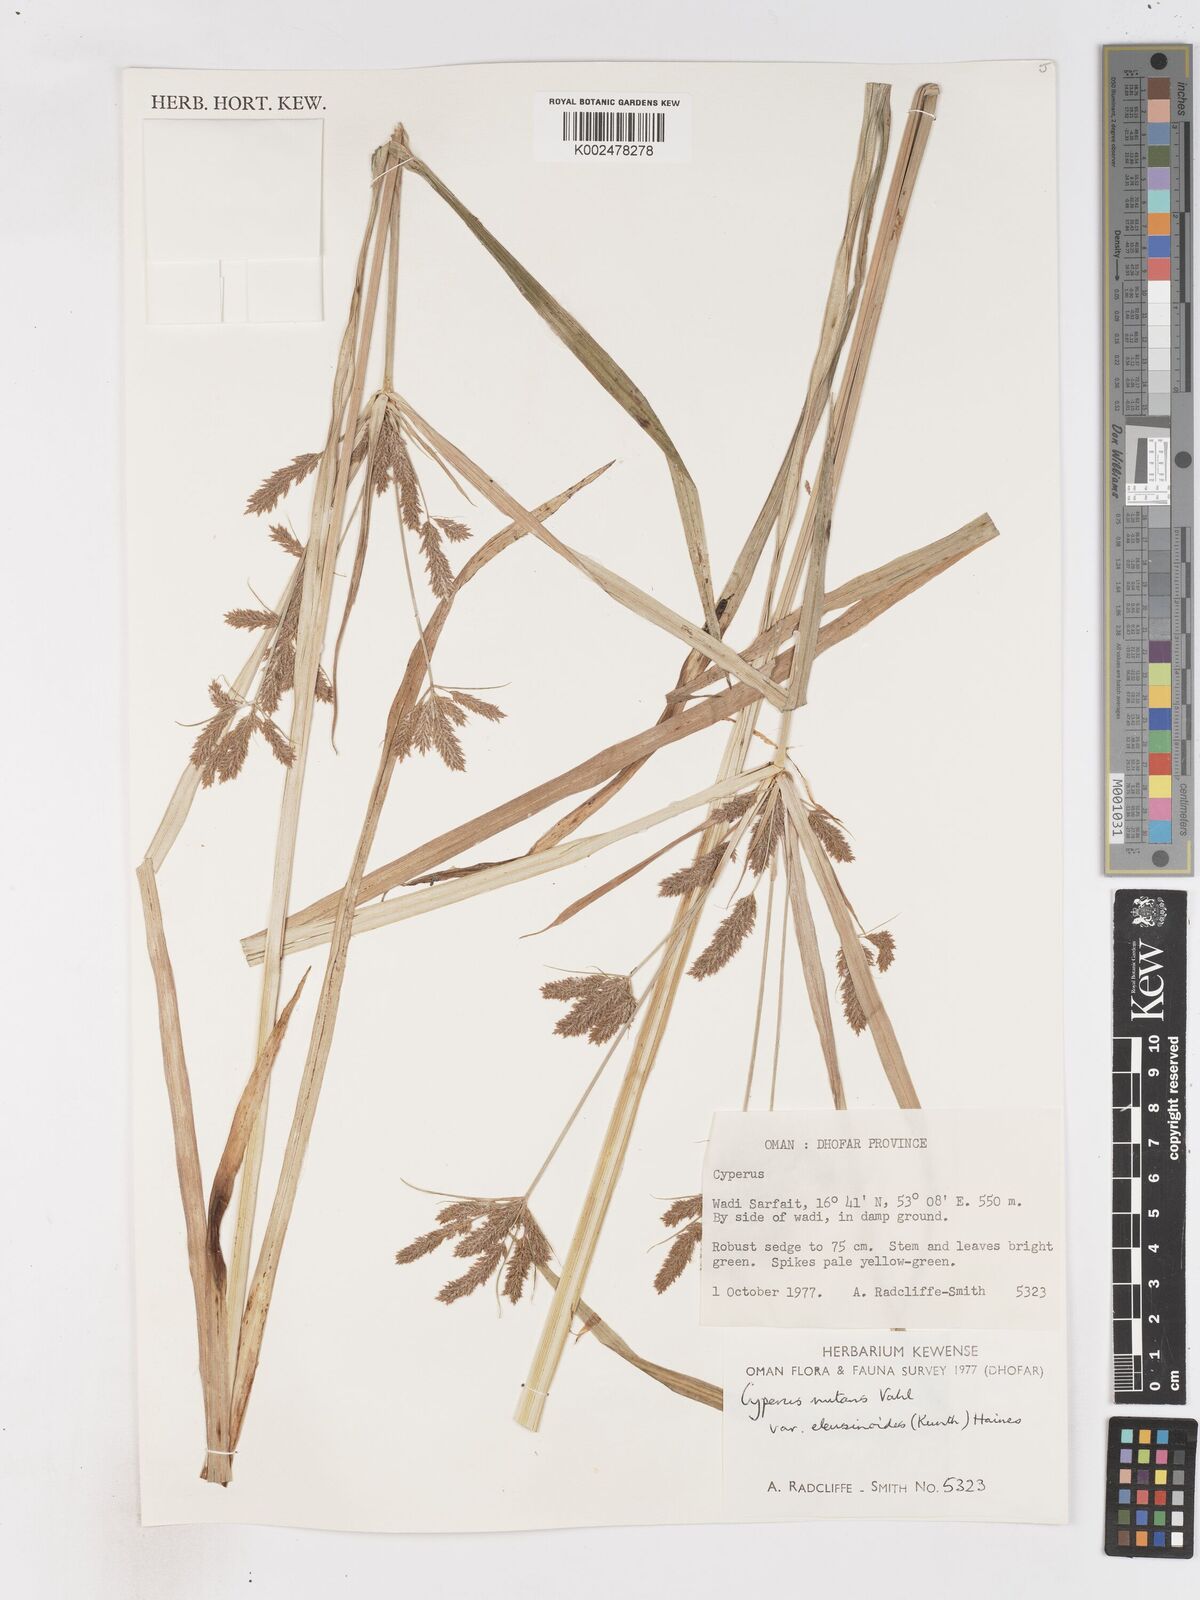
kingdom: Plantae
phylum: Tracheophyta
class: Liliopsida
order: Poales
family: Cyperaceae
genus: Cyperus
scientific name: Cyperus nutans
